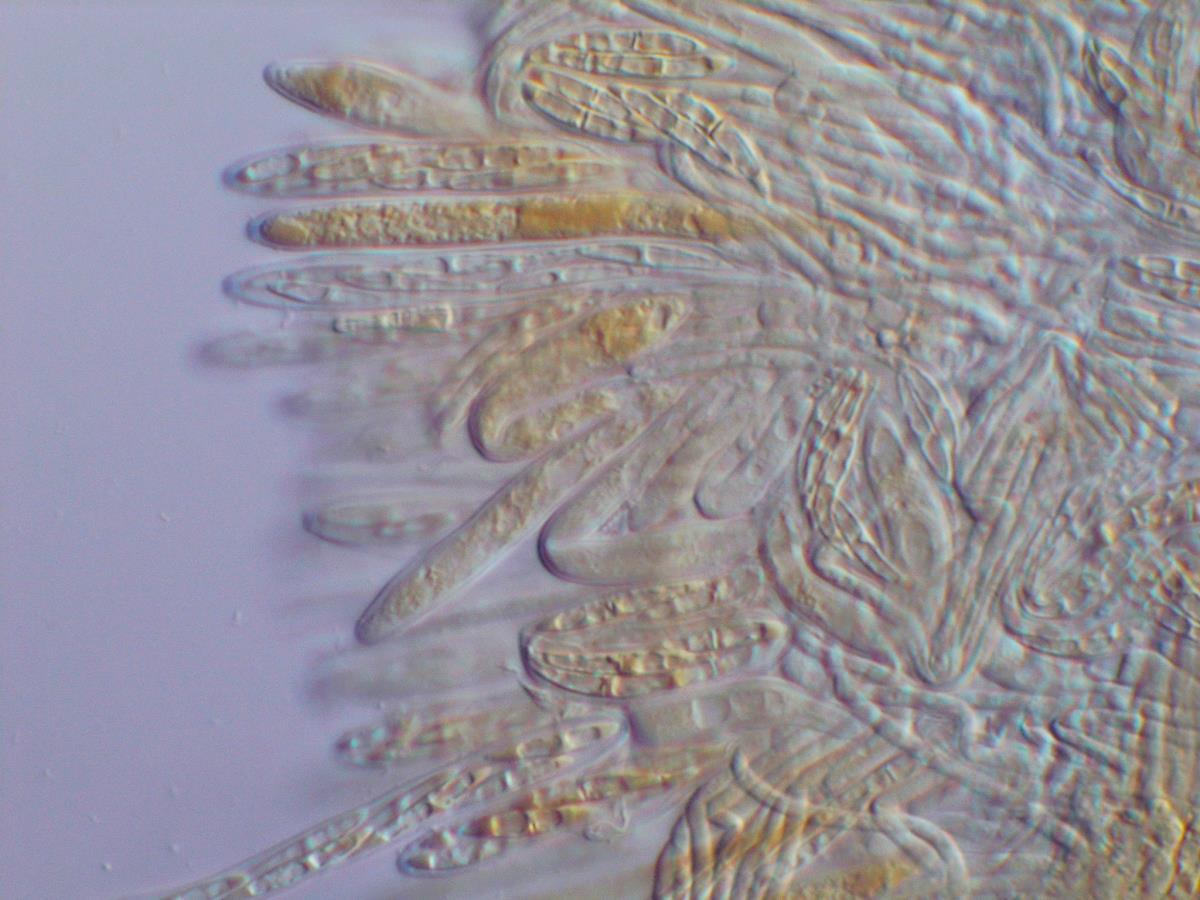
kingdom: Fungi
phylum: Ascomycota
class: Leotiomycetes
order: Helotiales
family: Lachnaceae
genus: Erioscyphella
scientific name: Erioscyphella
